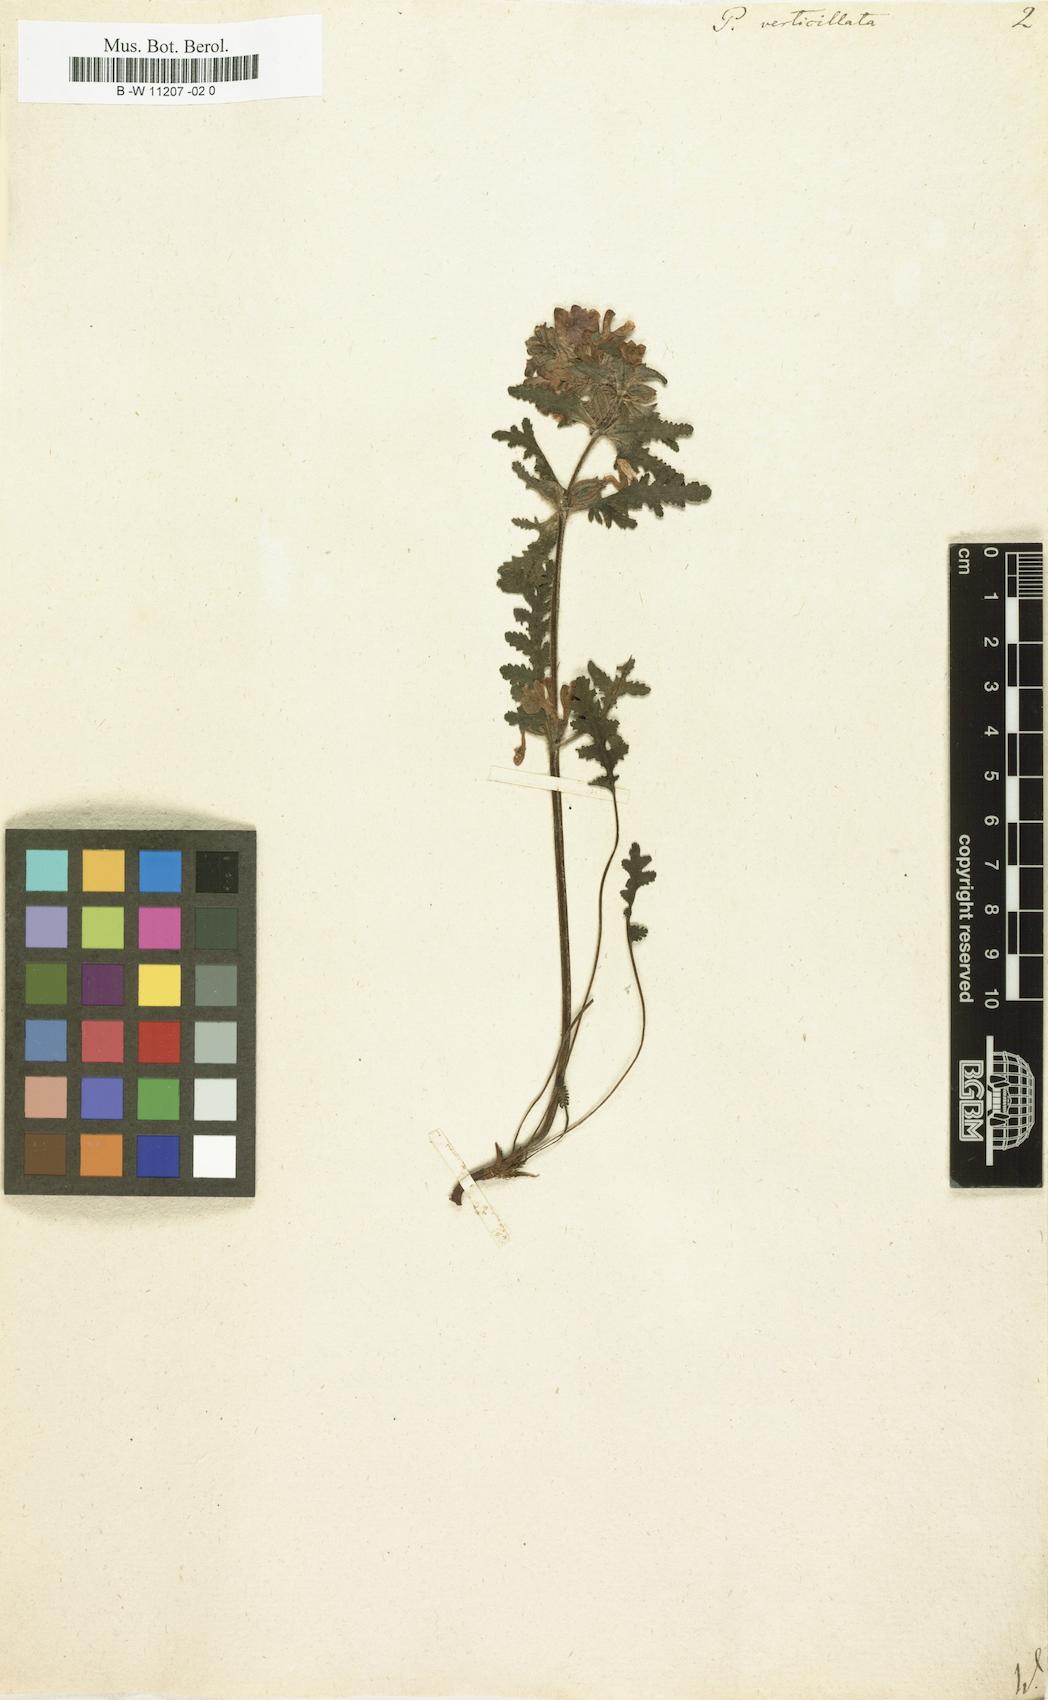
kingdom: Plantae
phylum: Tracheophyta
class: Magnoliopsida
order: Lamiales
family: Orobanchaceae
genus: Pedicularis
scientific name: Pedicularis verticillata
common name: Whorled lousewort
